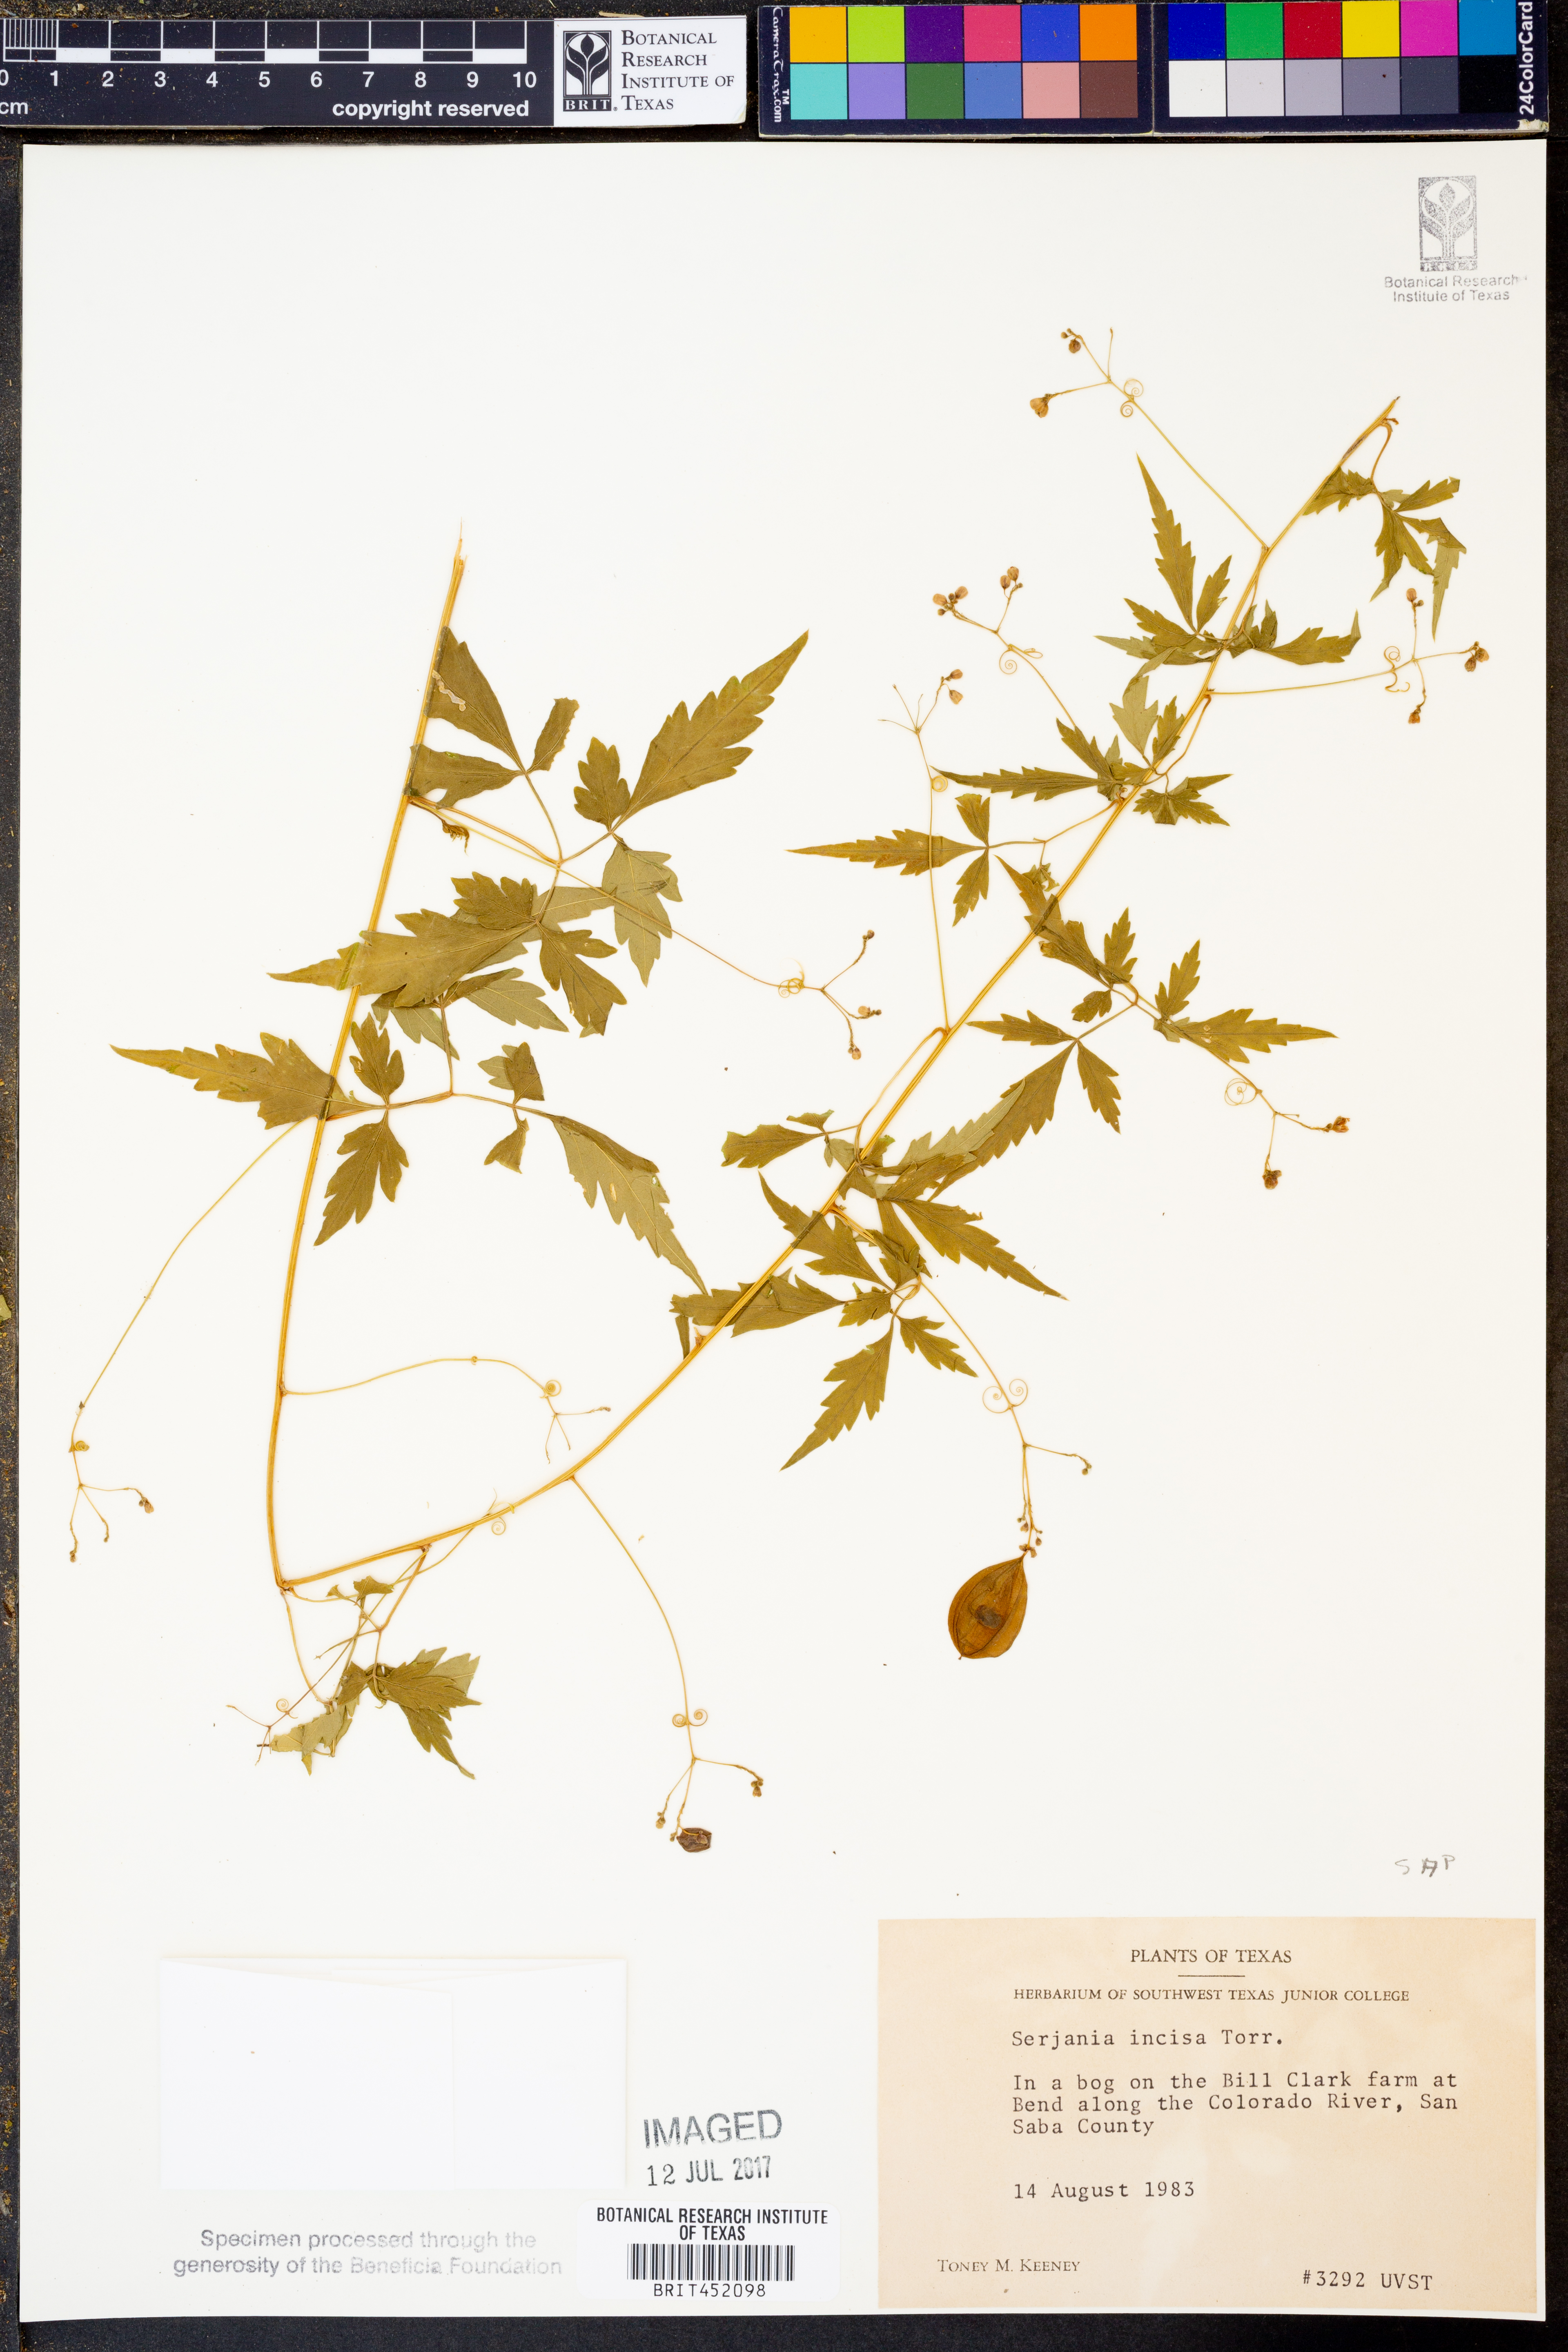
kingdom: Plantae
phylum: Tracheophyta
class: Magnoliopsida
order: Sapindales
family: Sapindaceae
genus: Serjania
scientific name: Serjania incisa
